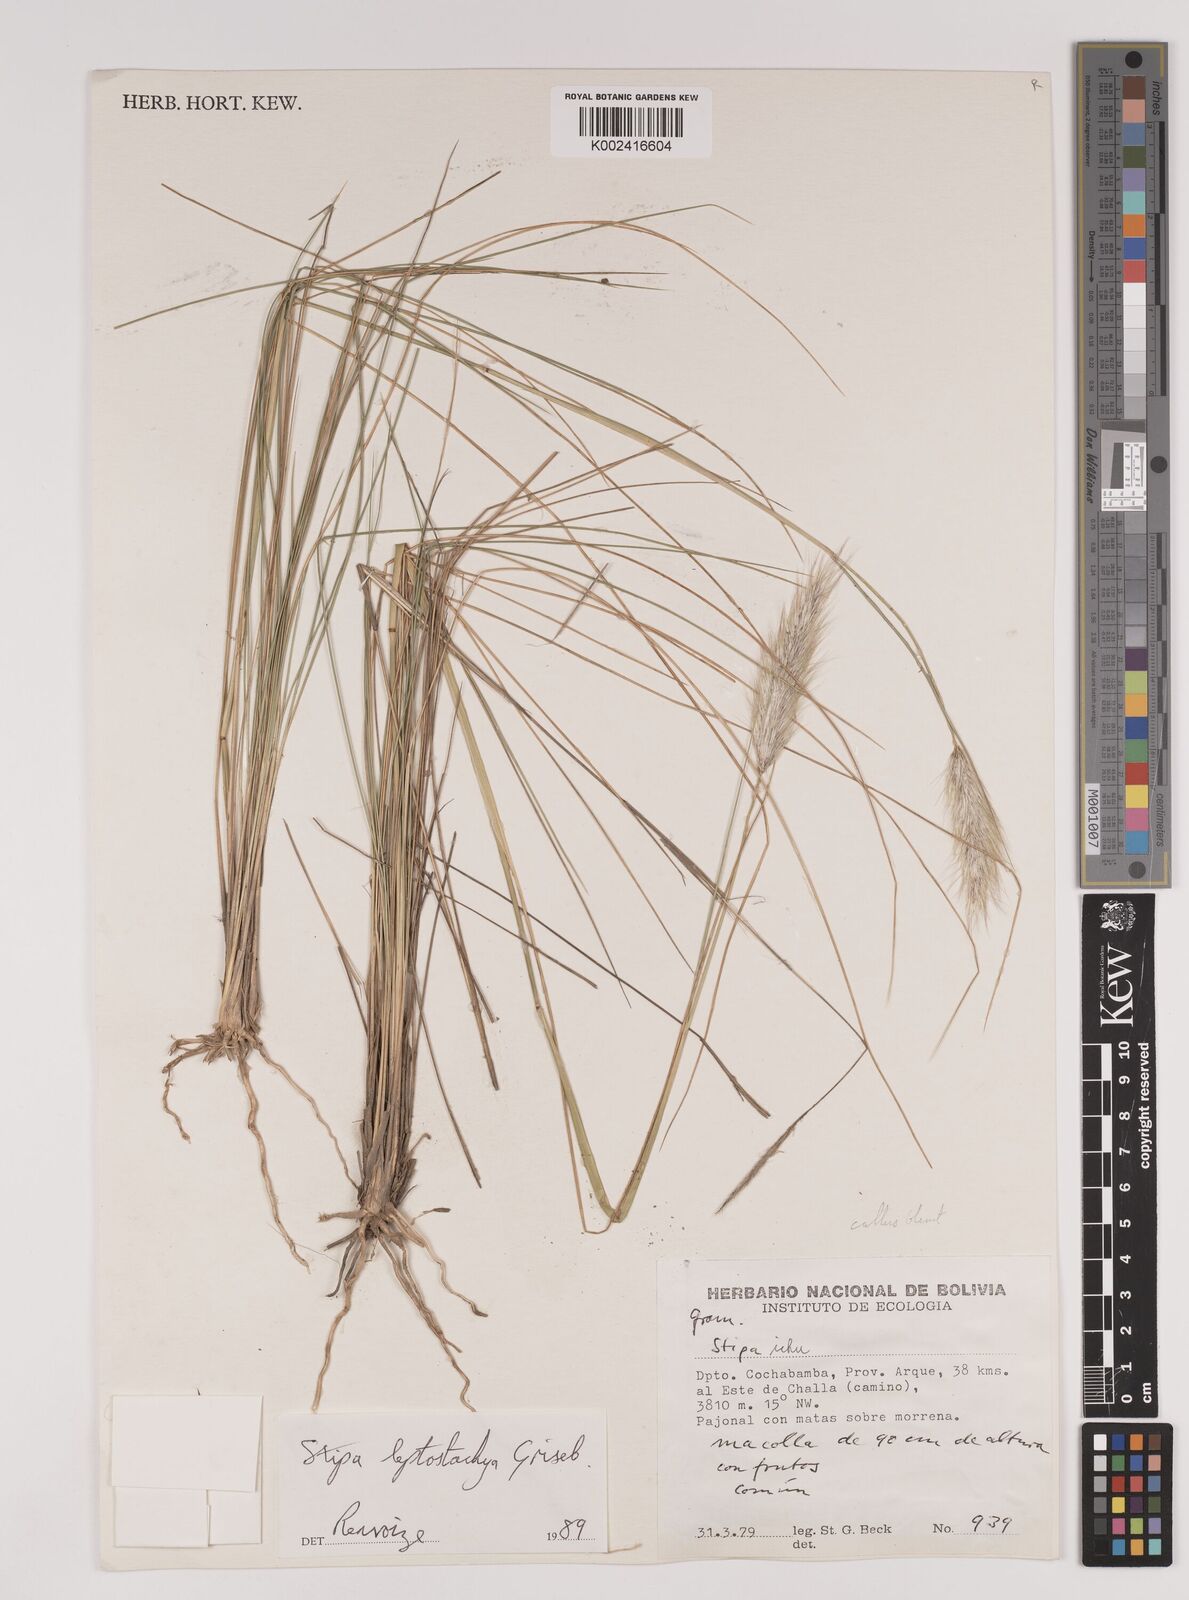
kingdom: Plantae
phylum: Tracheophyta
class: Liliopsida
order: Poales
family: Poaceae
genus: Jarava
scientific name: Jarava leptostachya
